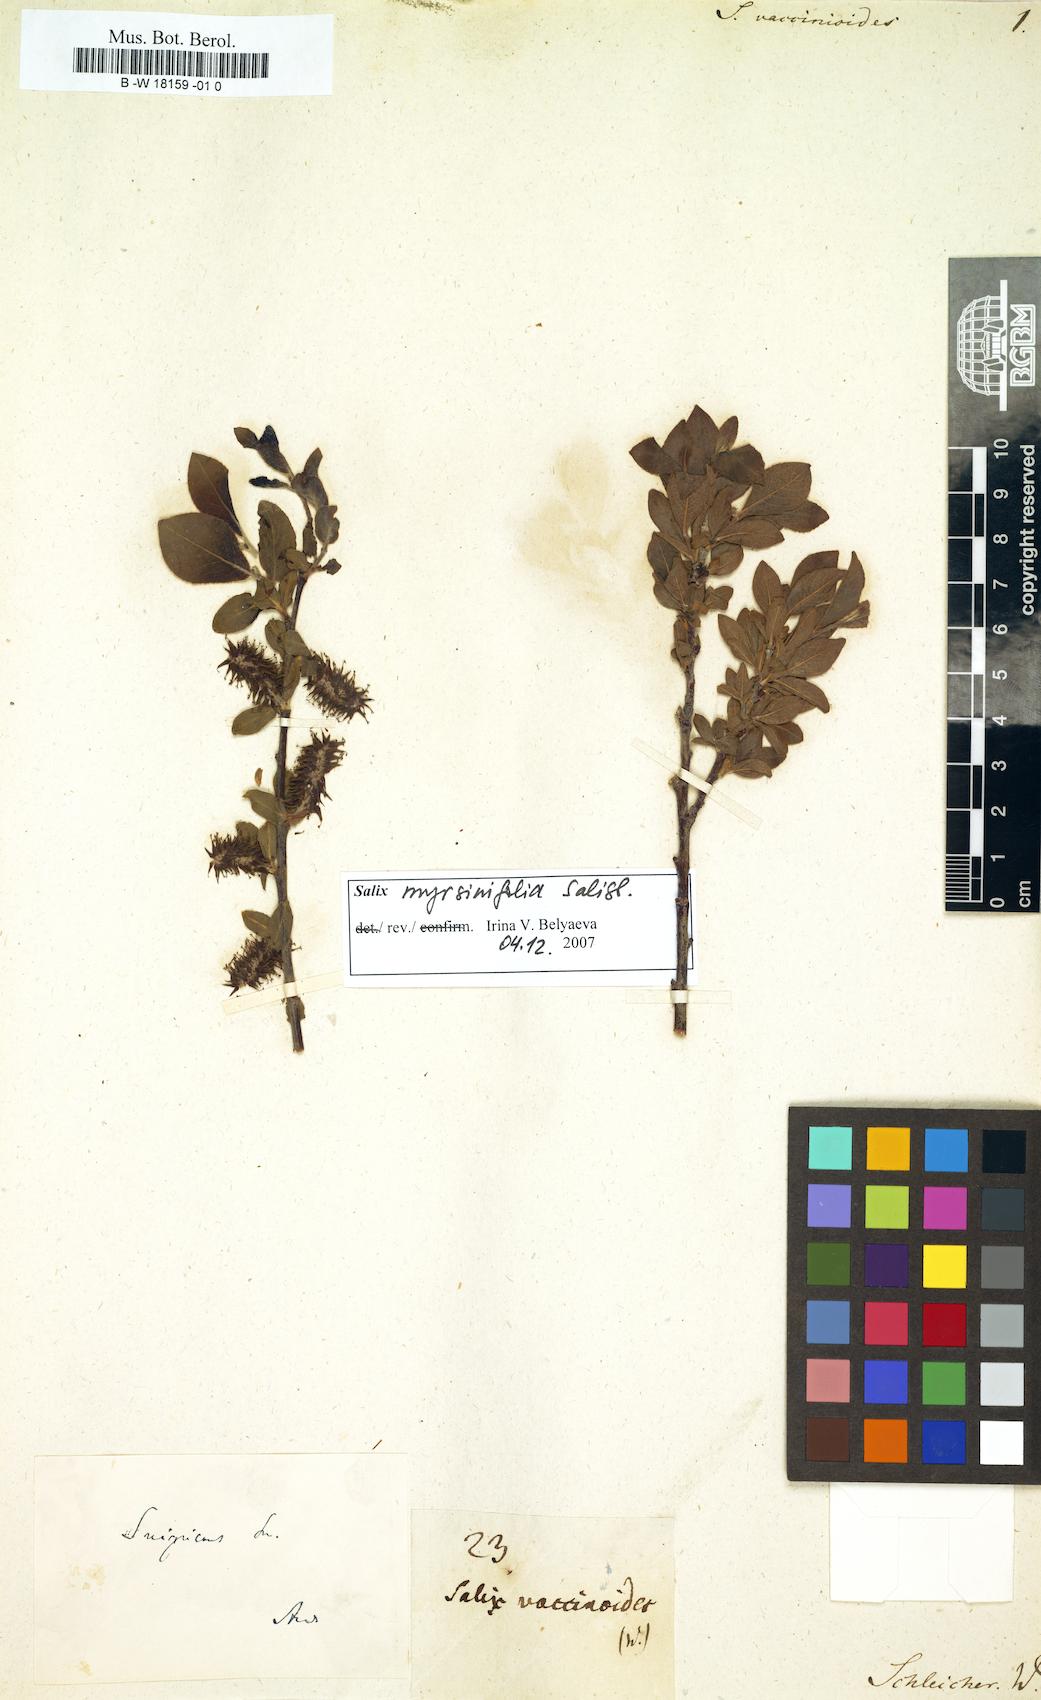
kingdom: Plantae
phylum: Tracheophyta
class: Magnoliopsida
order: Malpighiales
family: Salicaceae
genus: Salix
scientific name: Salix mazzettiana
